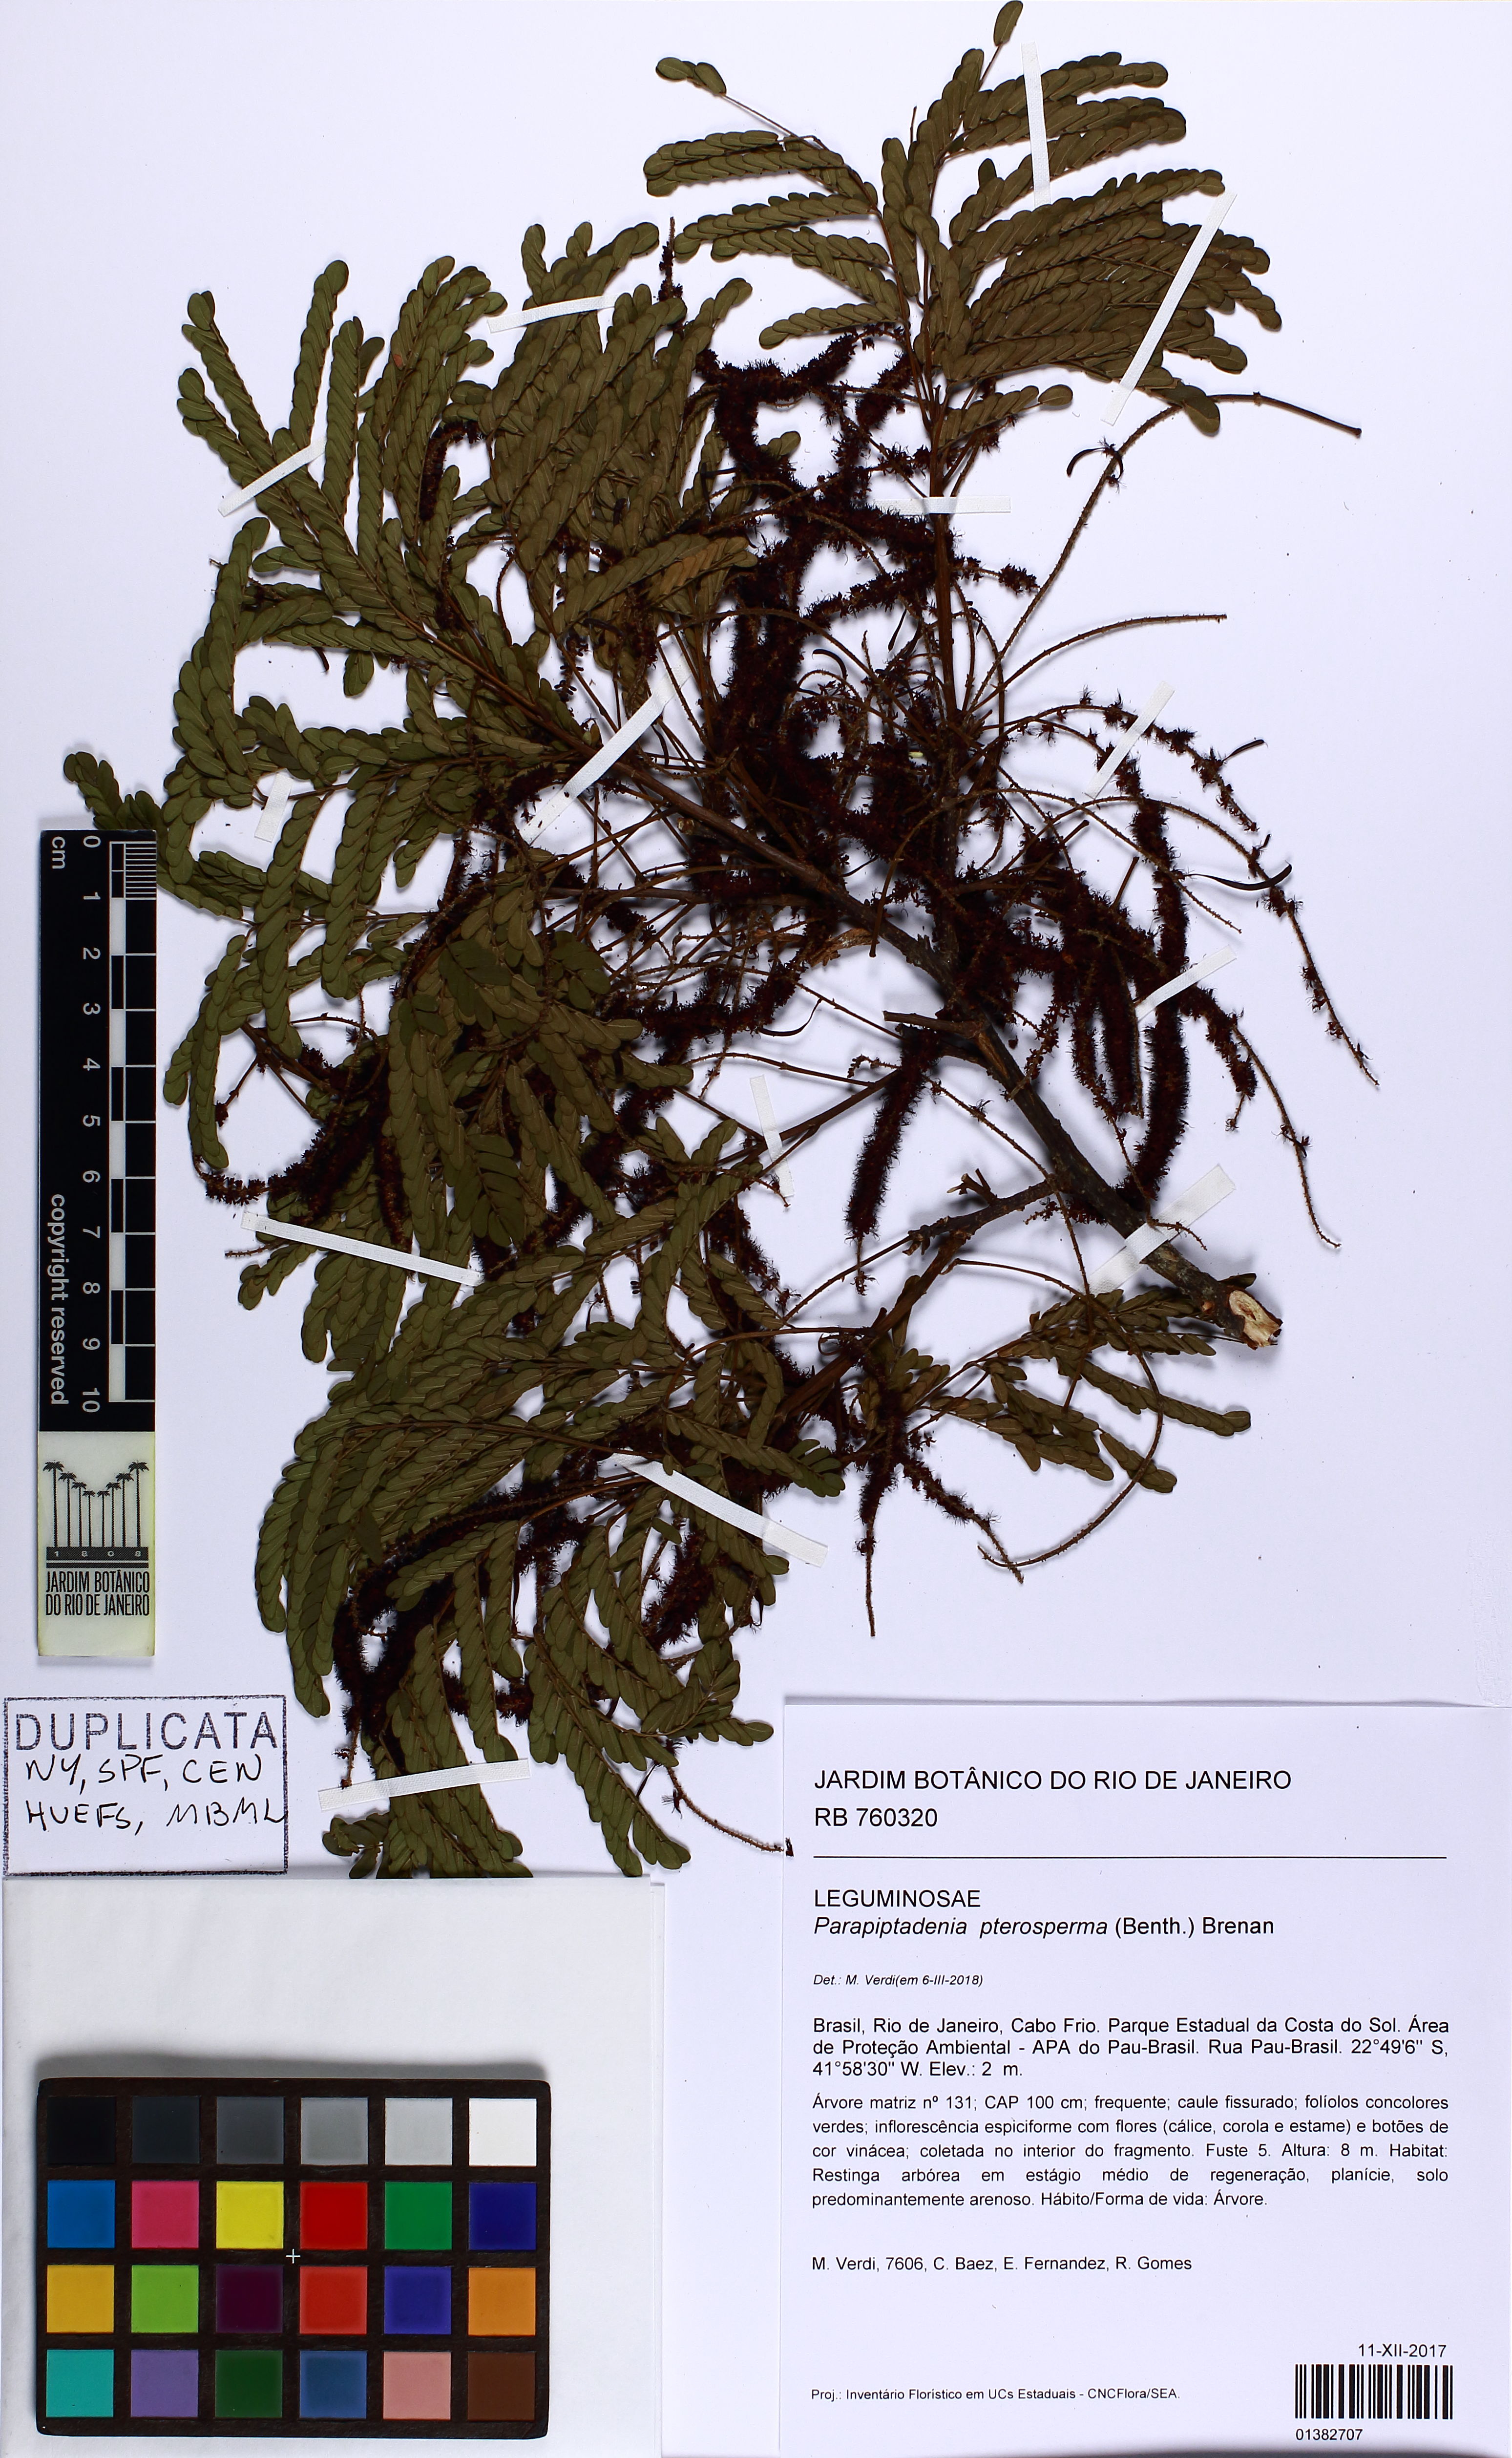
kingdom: Plantae
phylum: Tracheophyta
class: Magnoliopsida
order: Fabales
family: Fabaceae
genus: Parapiptadenia
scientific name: Parapiptadenia pterosperma
